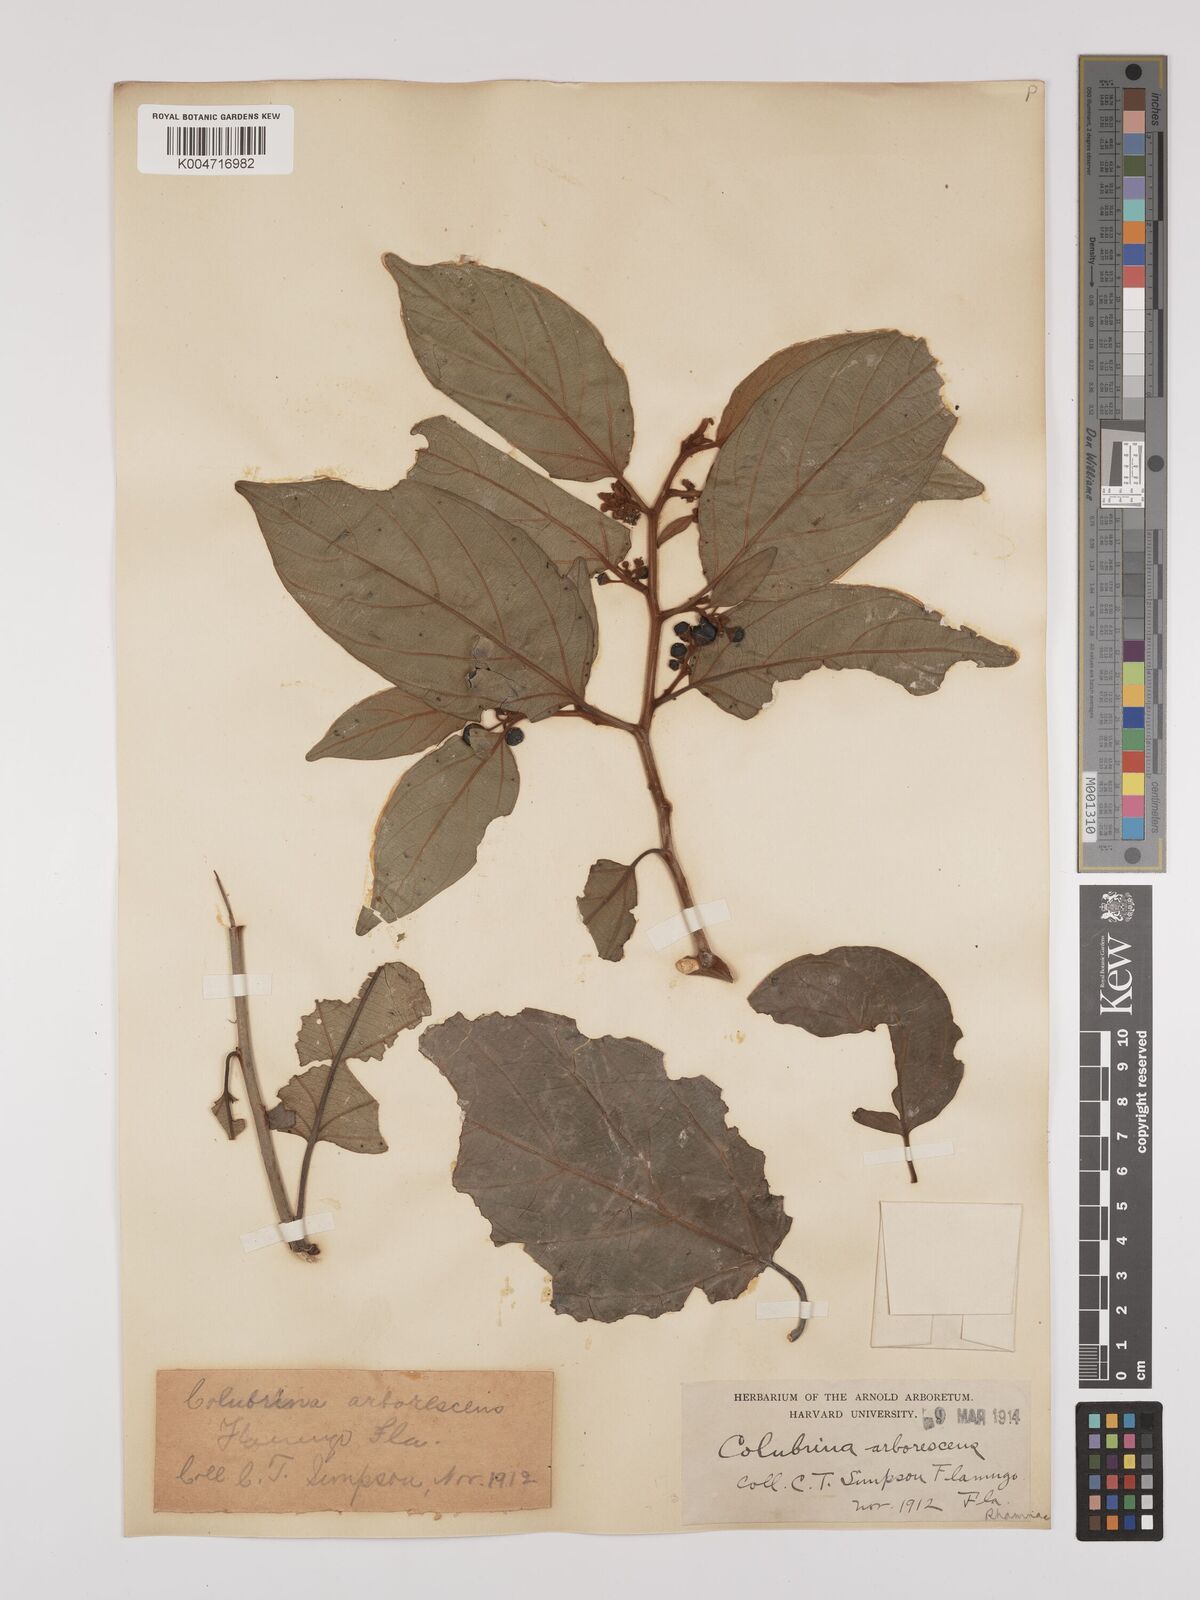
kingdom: Plantae
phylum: Tracheophyta
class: Magnoliopsida
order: Rosales
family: Rhamnaceae
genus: Colubrina
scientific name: Colubrina arborescens
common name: Wild coffee
